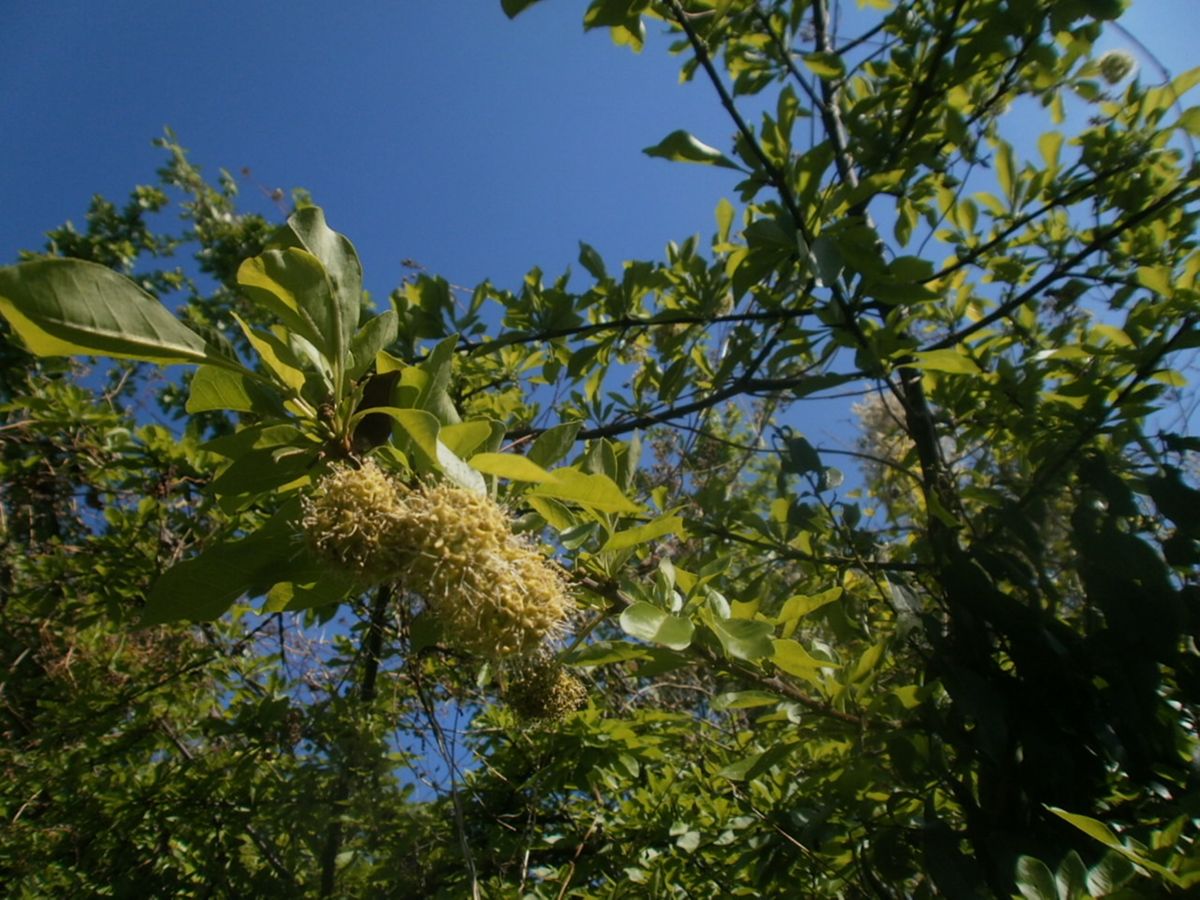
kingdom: Plantae
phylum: Tracheophyta
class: Magnoliopsida
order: Caryophyllales
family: Nyctaginaceae
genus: Pisonia
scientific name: Pisonia macranthocarpa
